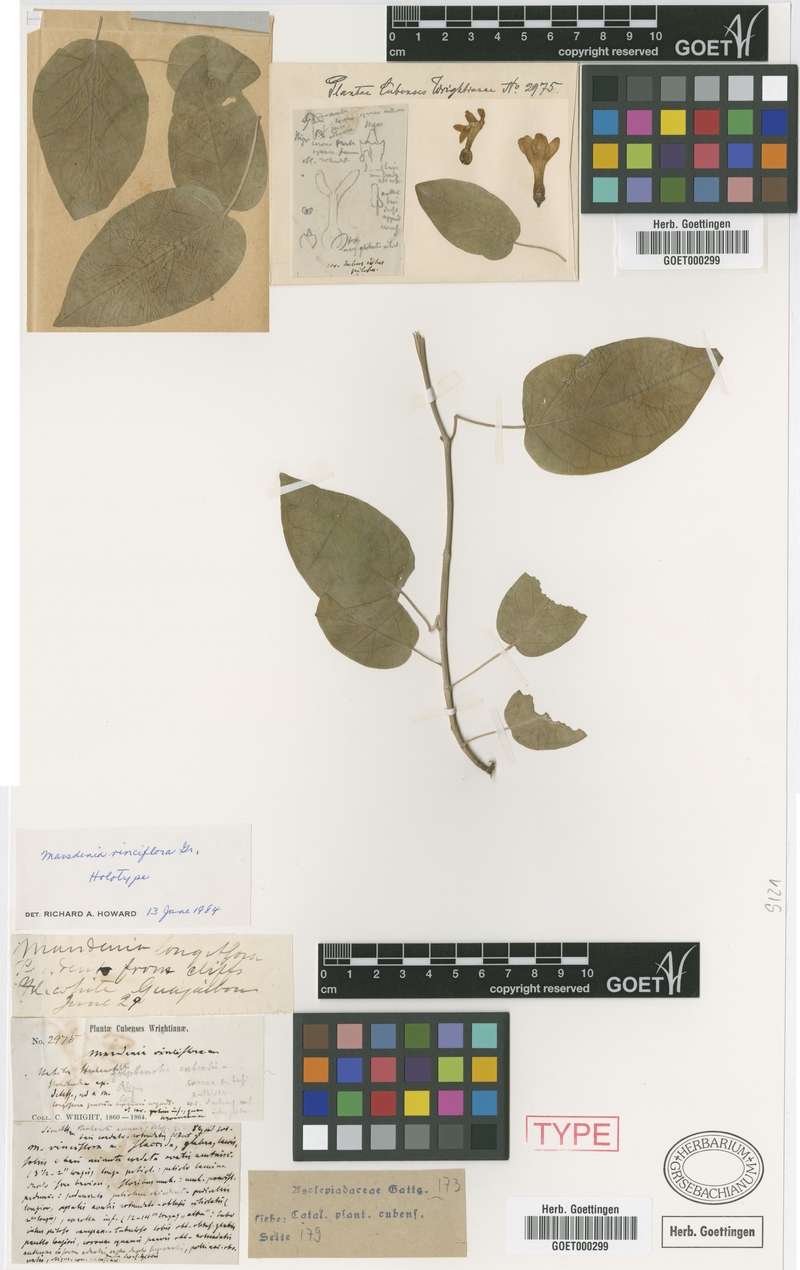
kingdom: Plantae
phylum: Tracheophyta
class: Magnoliopsida
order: Gentianales
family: Apocynaceae
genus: Ruehssia
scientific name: Ruehssia vinciflora
